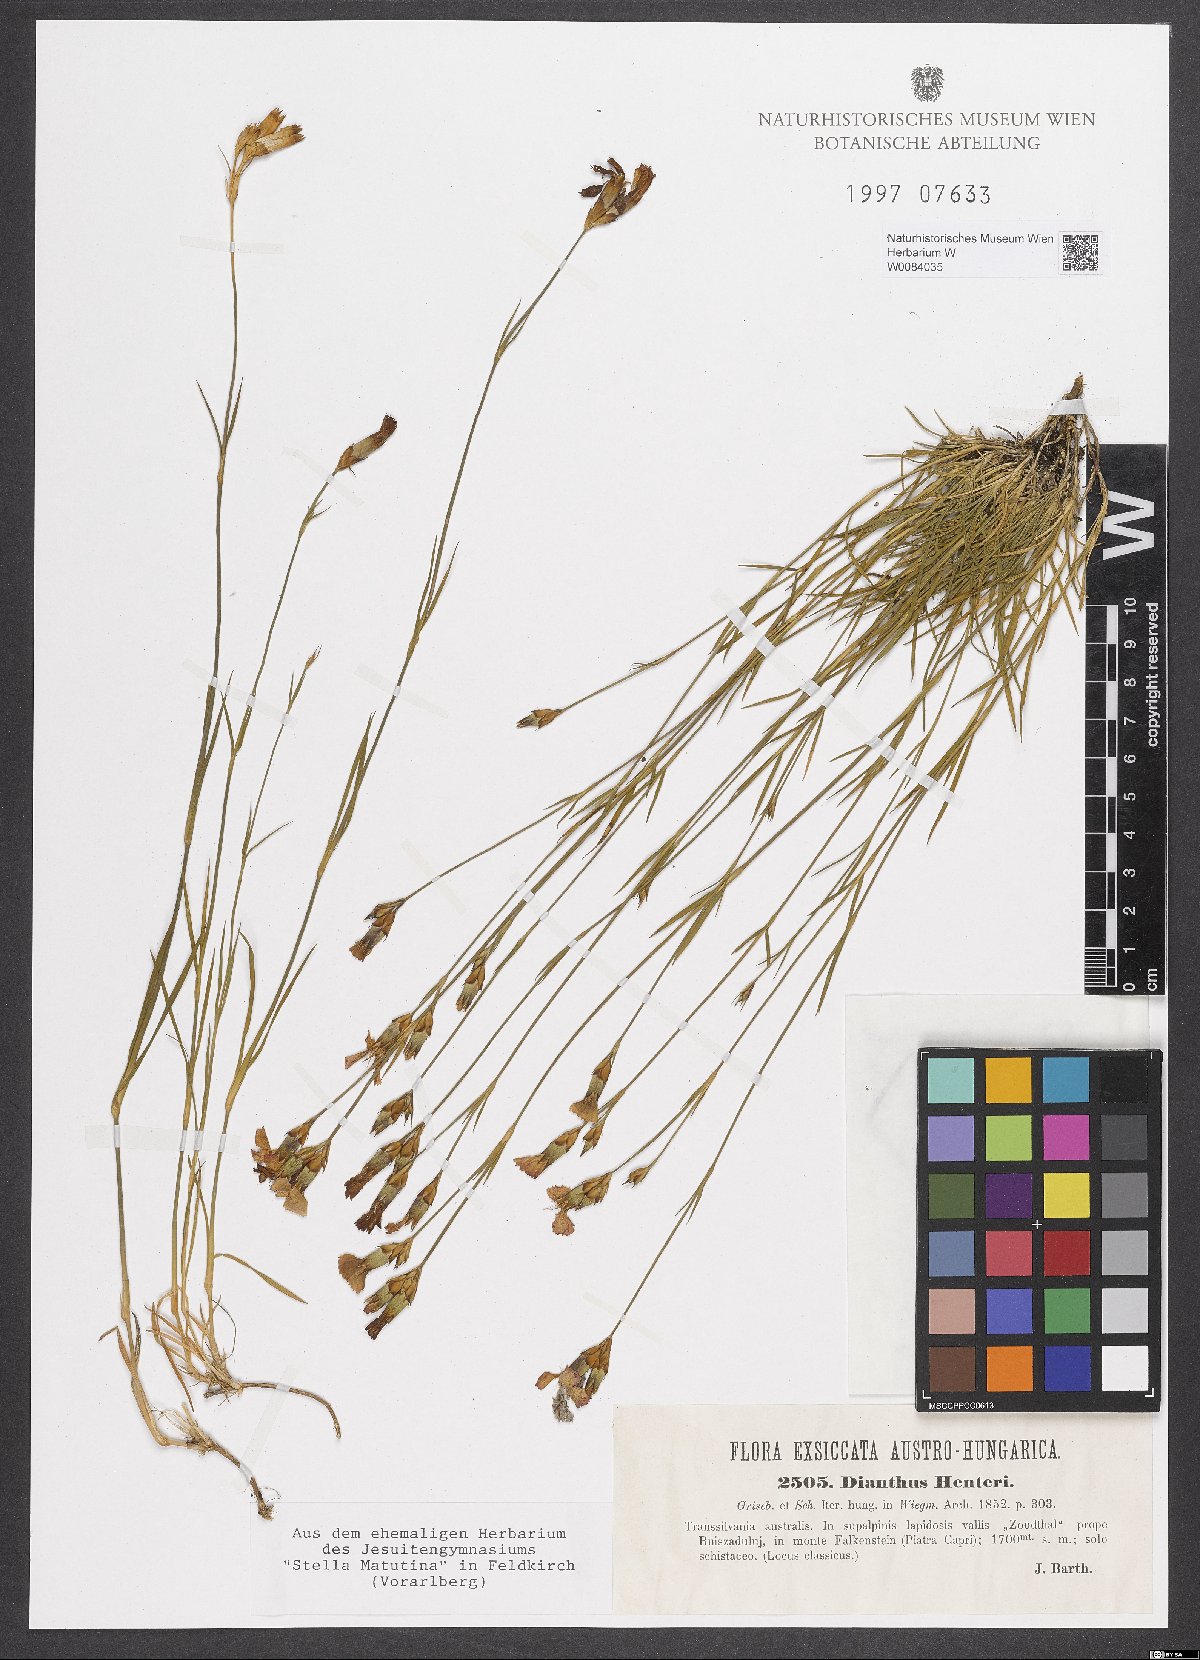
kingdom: Plantae
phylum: Tracheophyta
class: Magnoliopsida
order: Caryophyllales
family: Caryophyllaceae
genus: Dianthus
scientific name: Dianthus henteri
